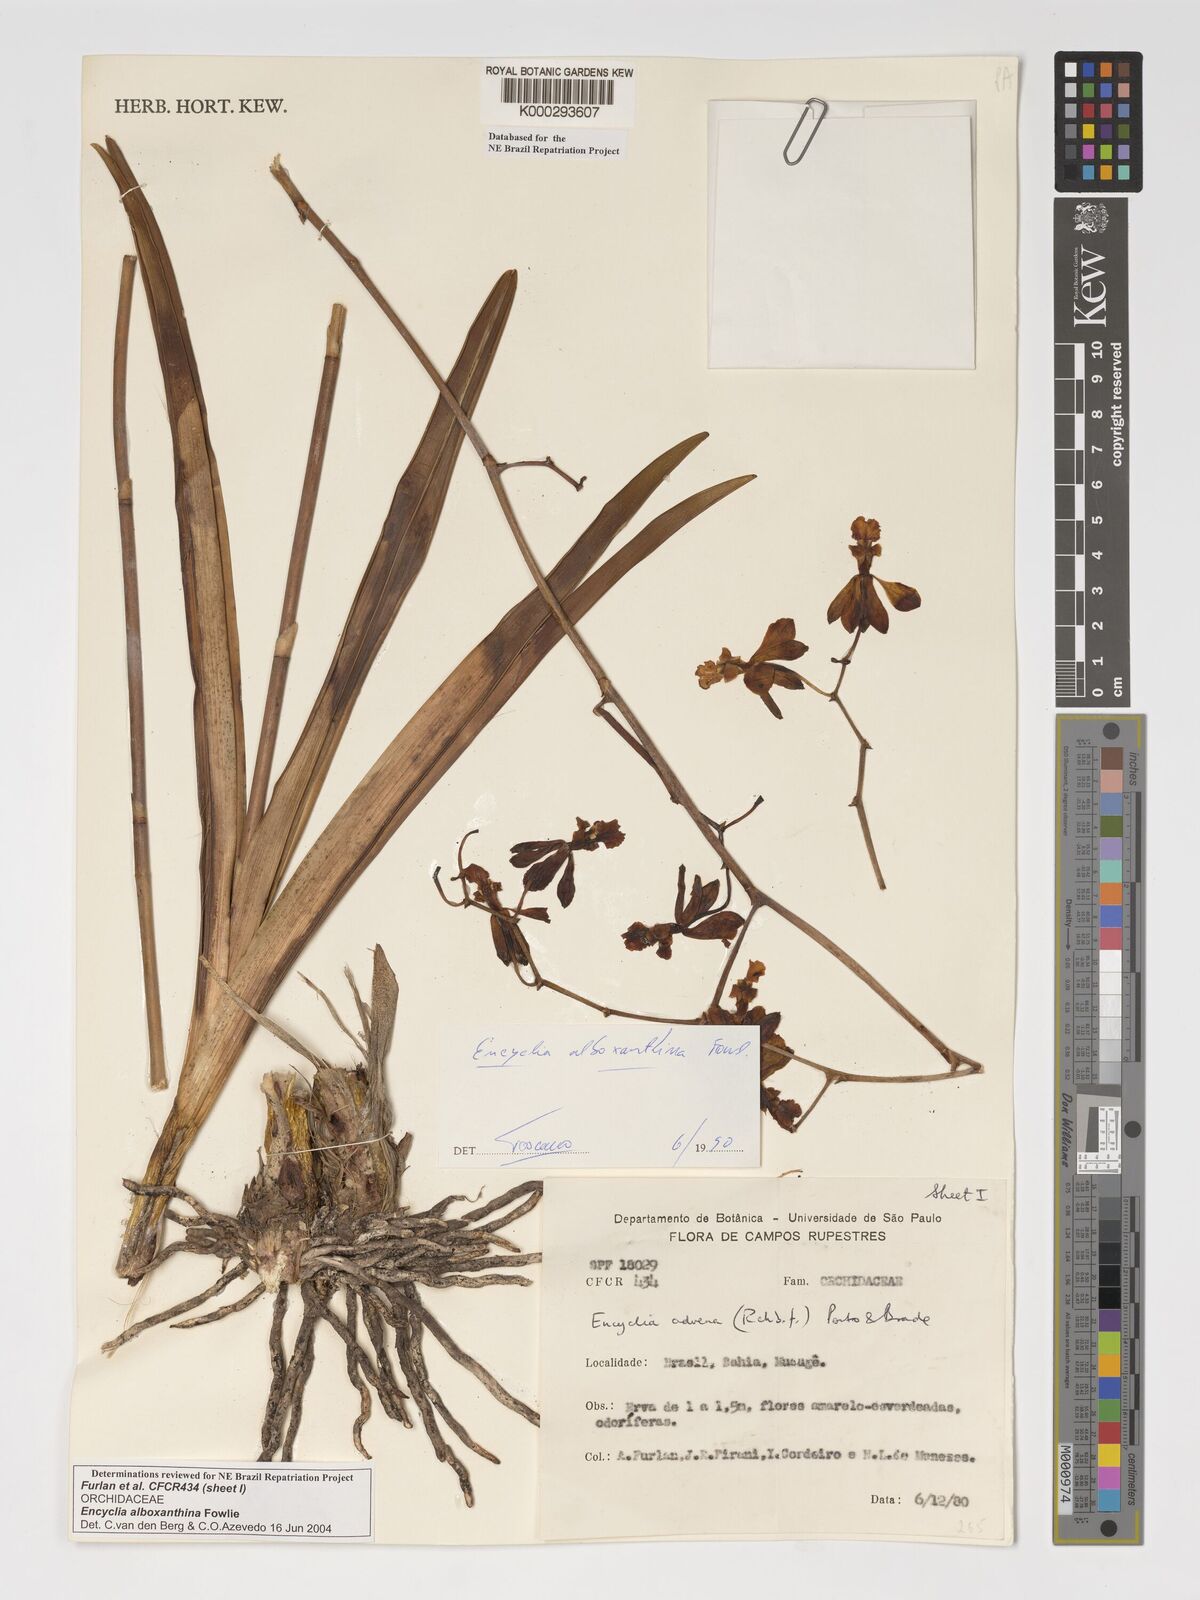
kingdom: Plantae
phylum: Tracheophyta
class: Liliopsida
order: Asparagales
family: Orchidaceae
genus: Encyclia
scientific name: Encyclia alboxanthina
